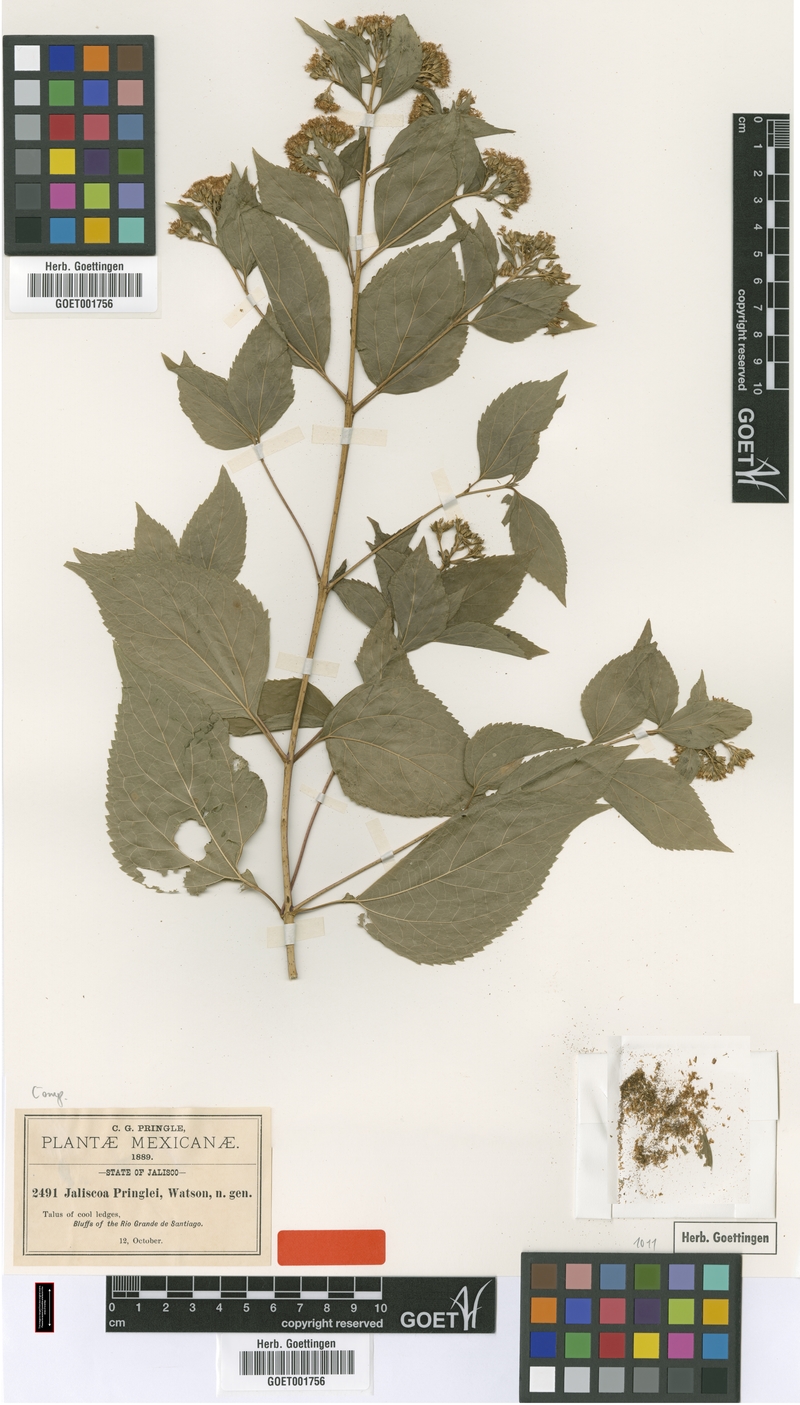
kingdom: Plantae
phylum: Tracheophyta
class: Magnoliopsida
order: Asterales
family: Asteraceae
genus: Jaliscoa
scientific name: Jaliscoa pringlei
